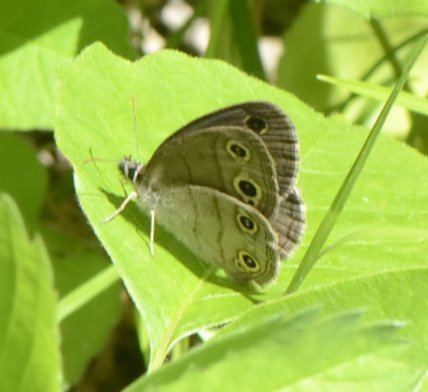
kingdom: Animalia
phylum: Arthropoda
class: Insecta
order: Lepidoptera
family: Nymphalidae
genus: Euptychia
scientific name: Euptychia cymela
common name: Little Wood Satyr
